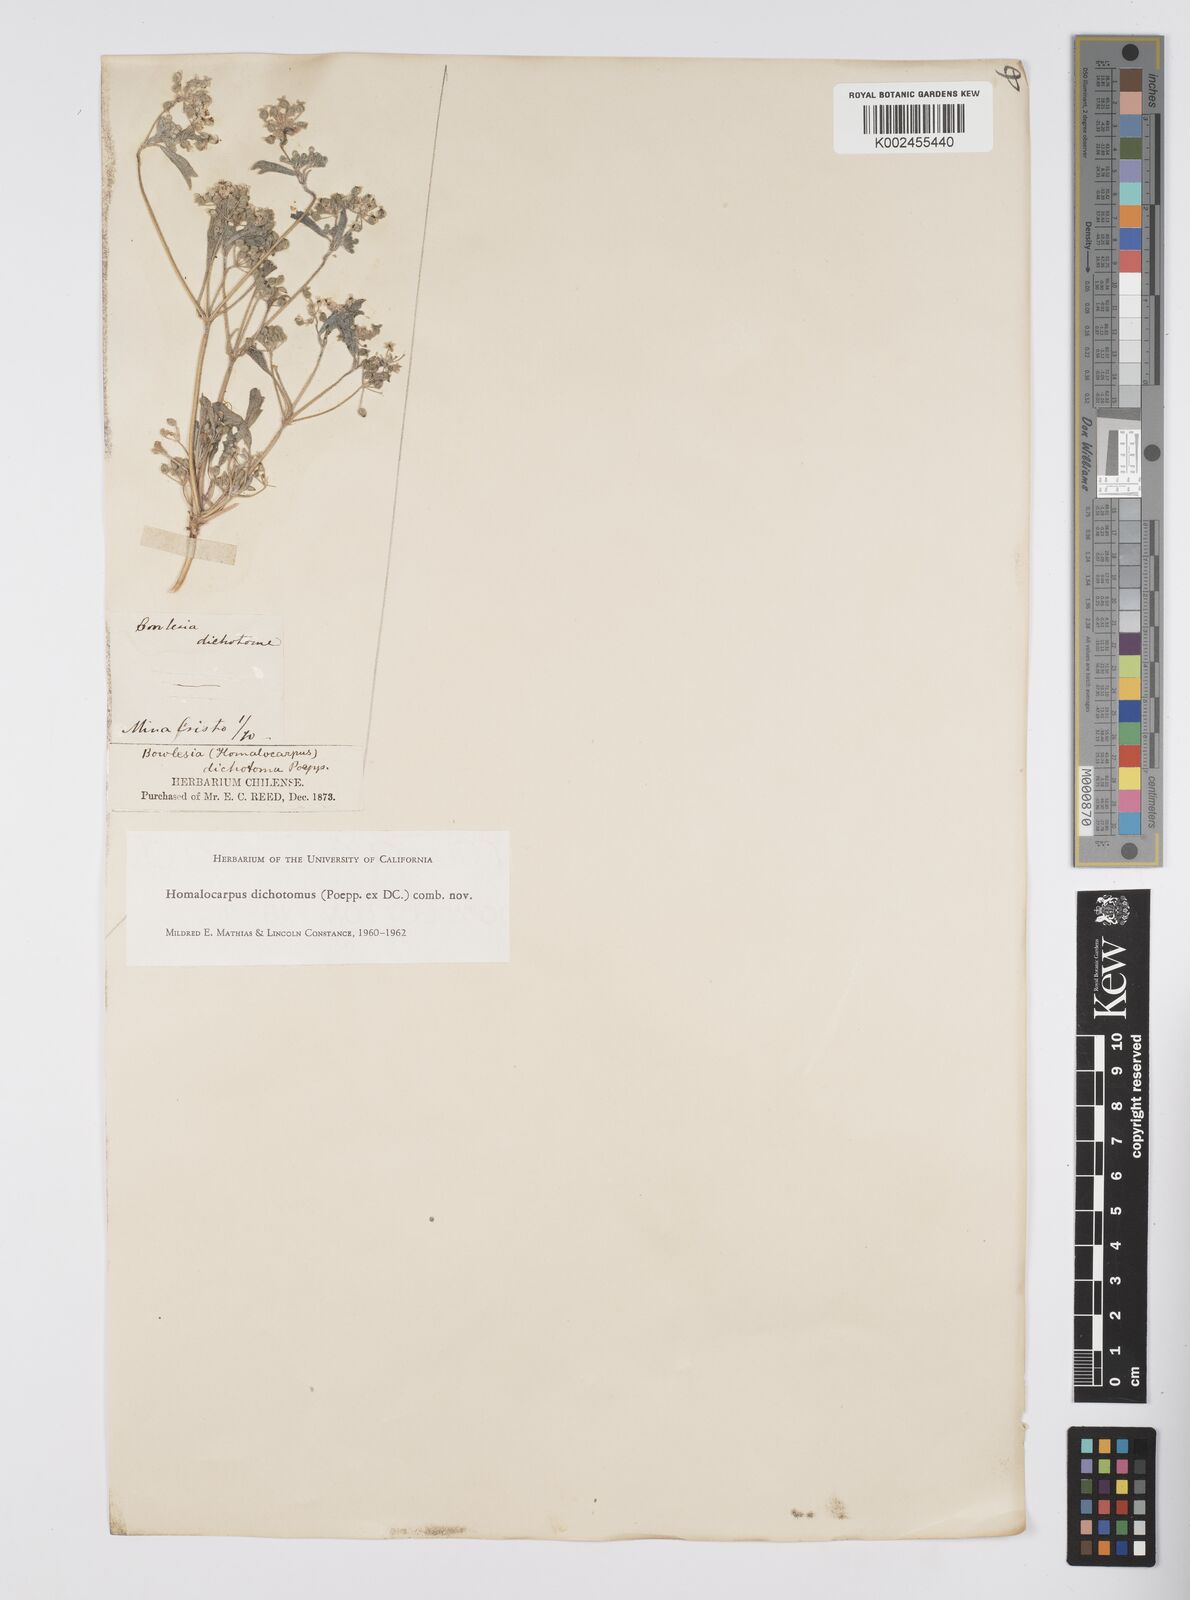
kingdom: Plantae
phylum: Tracheophyta
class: Magnoliopsida
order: Apiales
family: Apiaceae
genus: Homalocarpus
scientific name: Homalocarpus dichotomus
